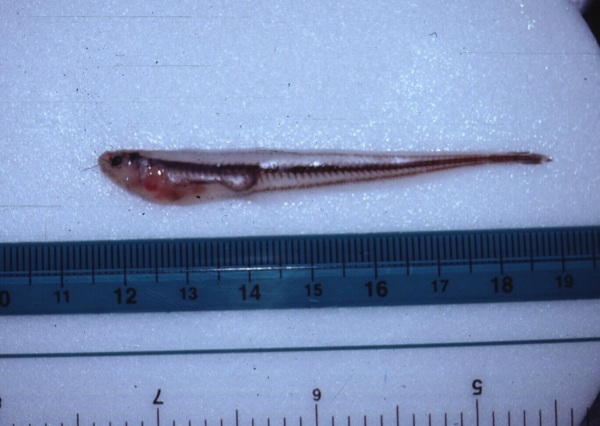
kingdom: Animalia
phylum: Chordata
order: Ophidiiformes
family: Carapidae
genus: Onuxodon
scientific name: Onuxodon parvibrachium
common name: Oyster pearlfish
